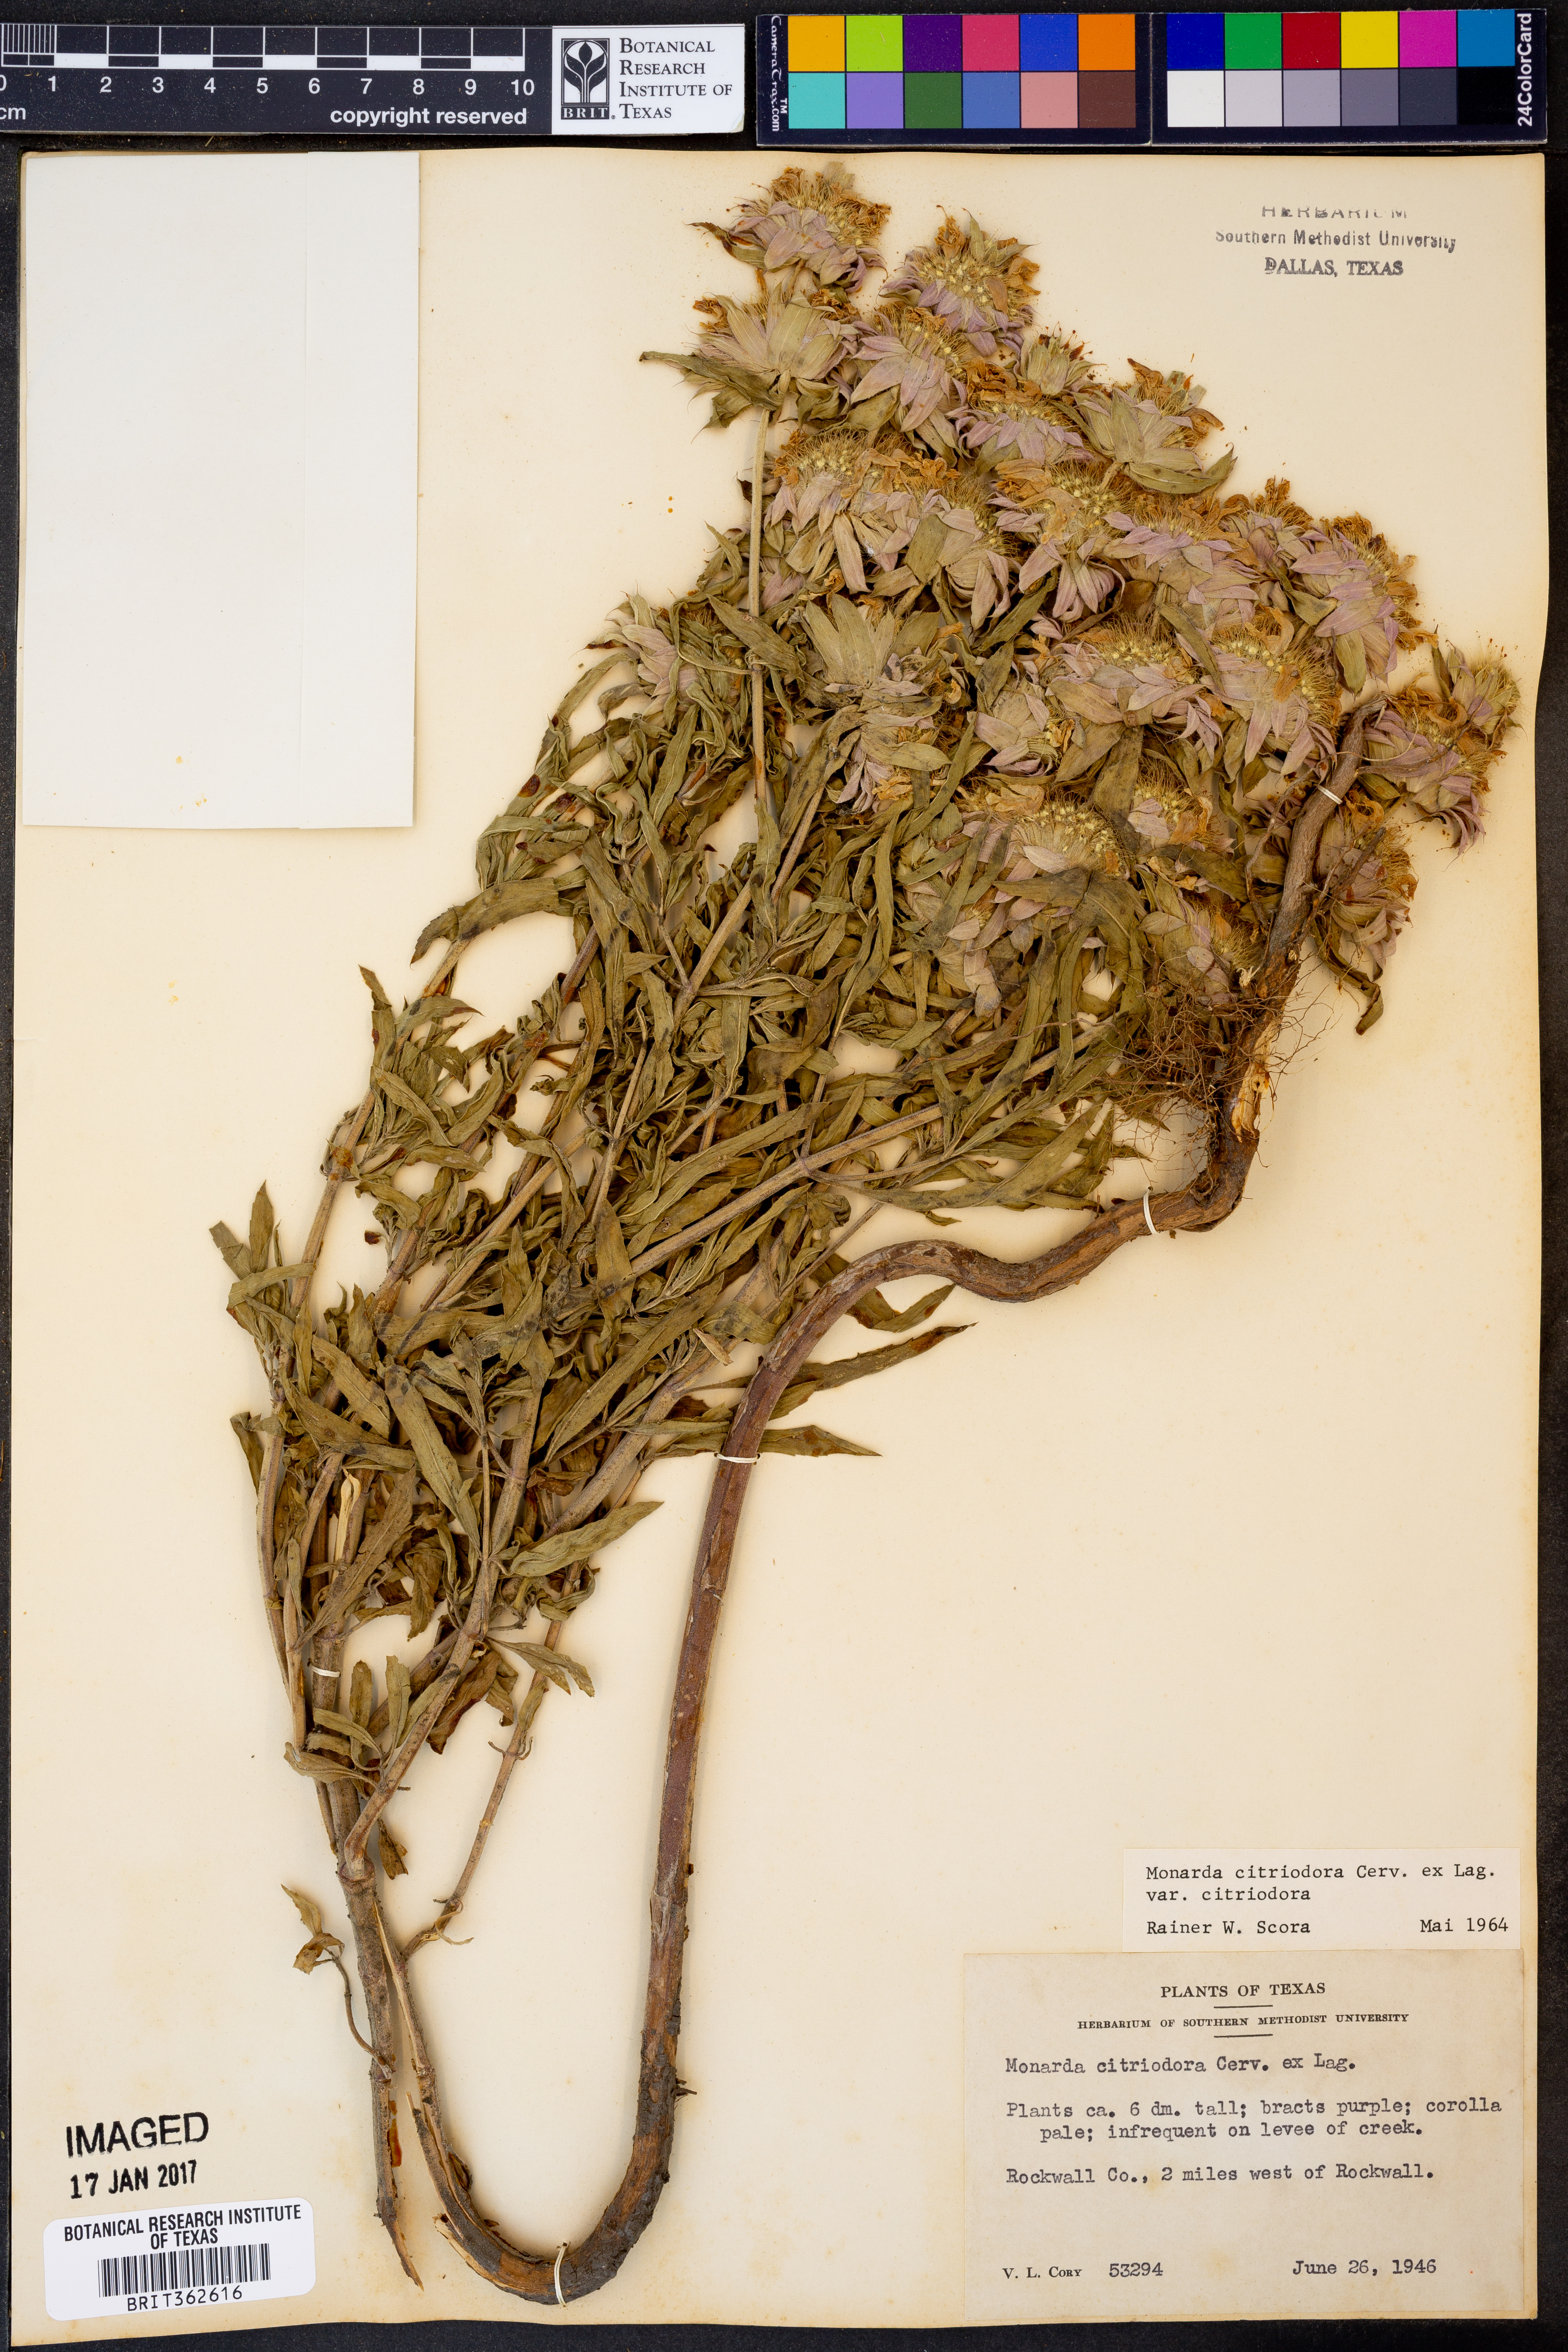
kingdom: Plantae
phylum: Tracheophyta
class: Magnoliopsida
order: Lamiales
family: Lamiaceae
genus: Monarda
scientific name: Monarda citriodora
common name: Lemon beebalm
